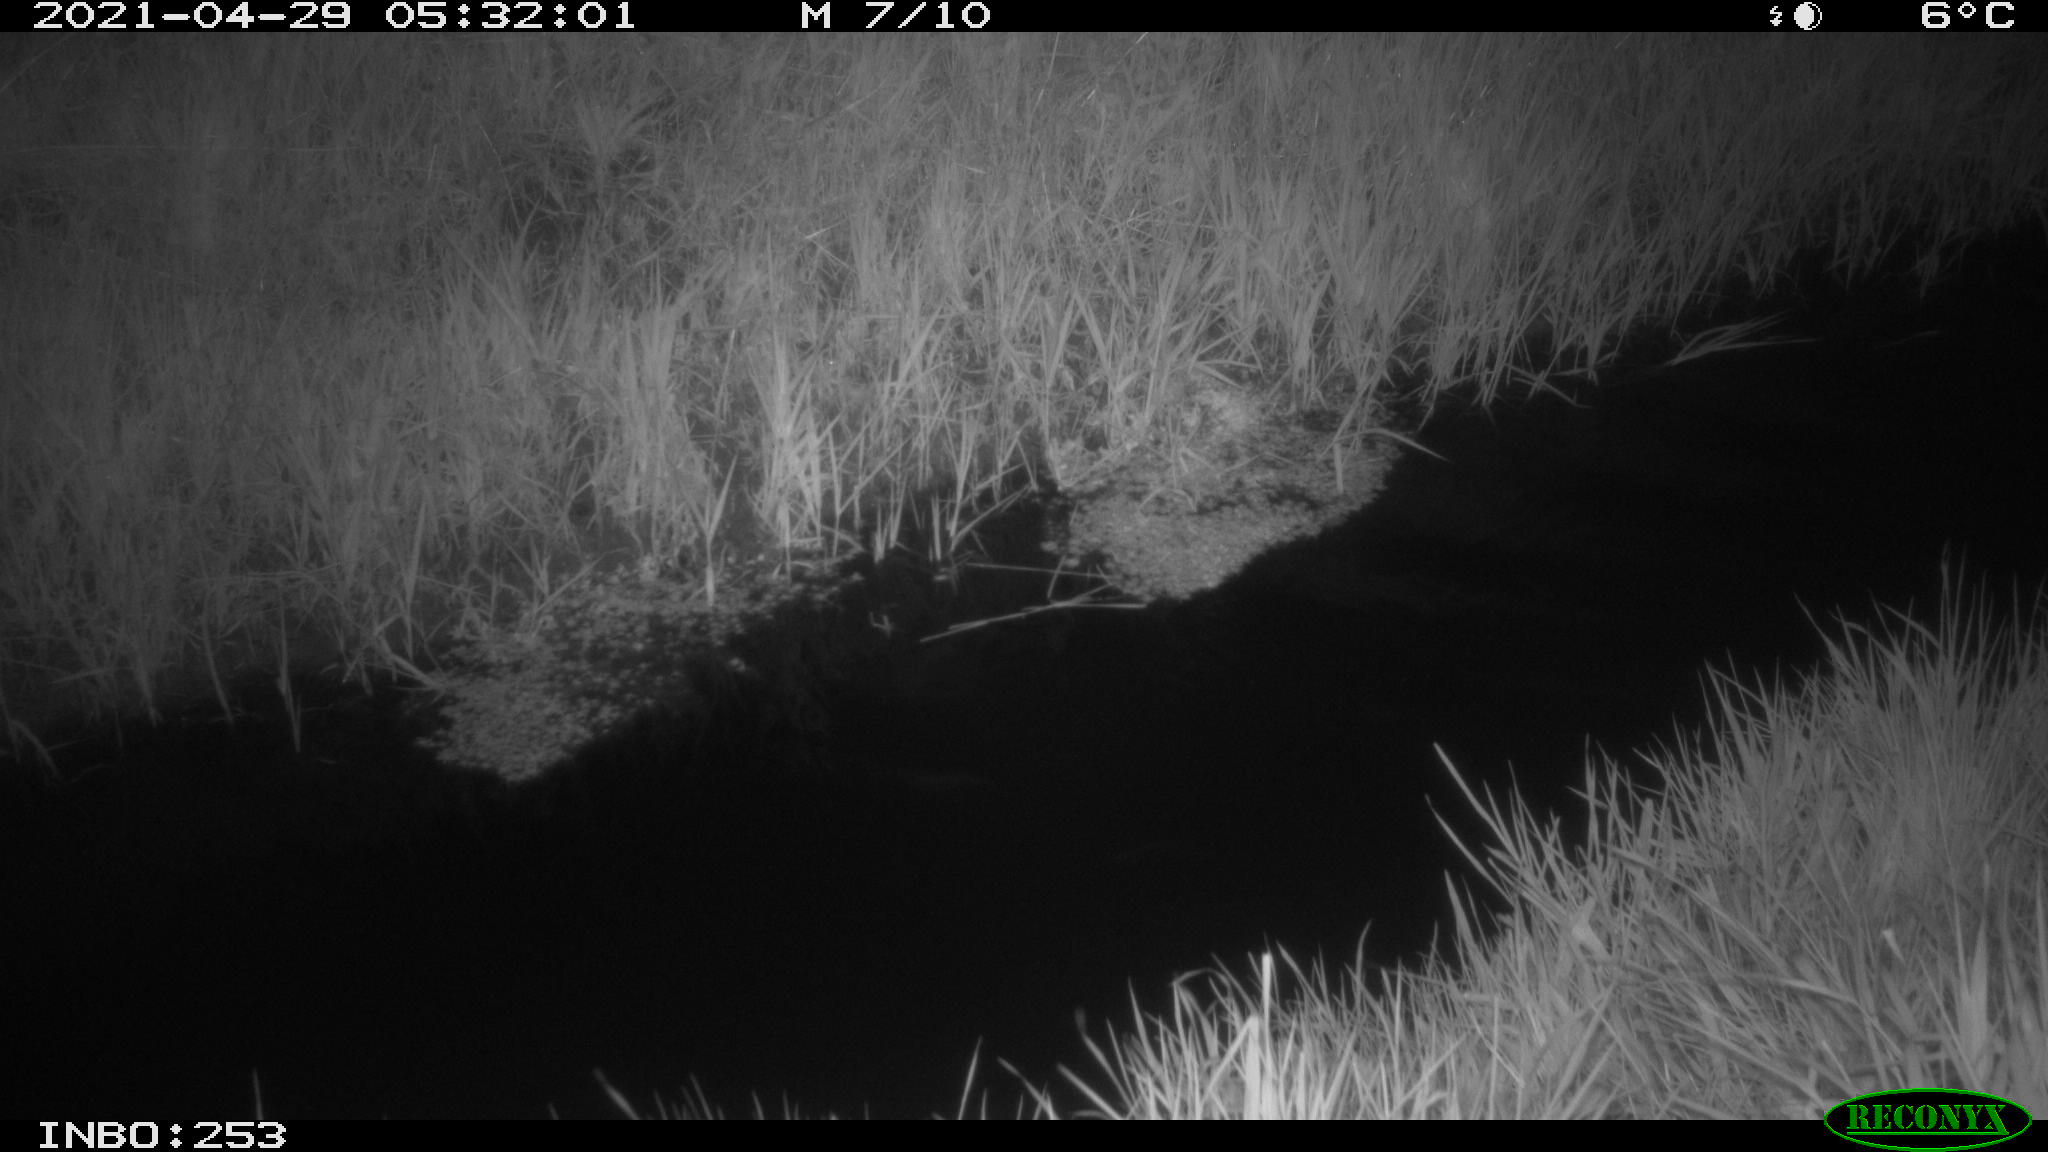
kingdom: Animalia
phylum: Chordata
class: Aves
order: Anseriformes
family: Anatidae
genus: Anas
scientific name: Anas platyrhynchos
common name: Mallard
